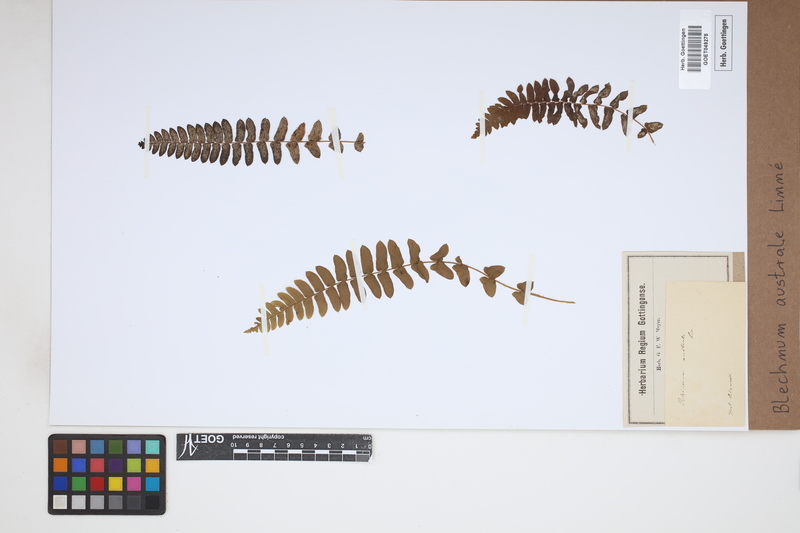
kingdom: Plantae
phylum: Tracheophyta
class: Polypodiopsida
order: Polypodiales
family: Blechnaceae
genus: Blechnum
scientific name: Blechnum australe
